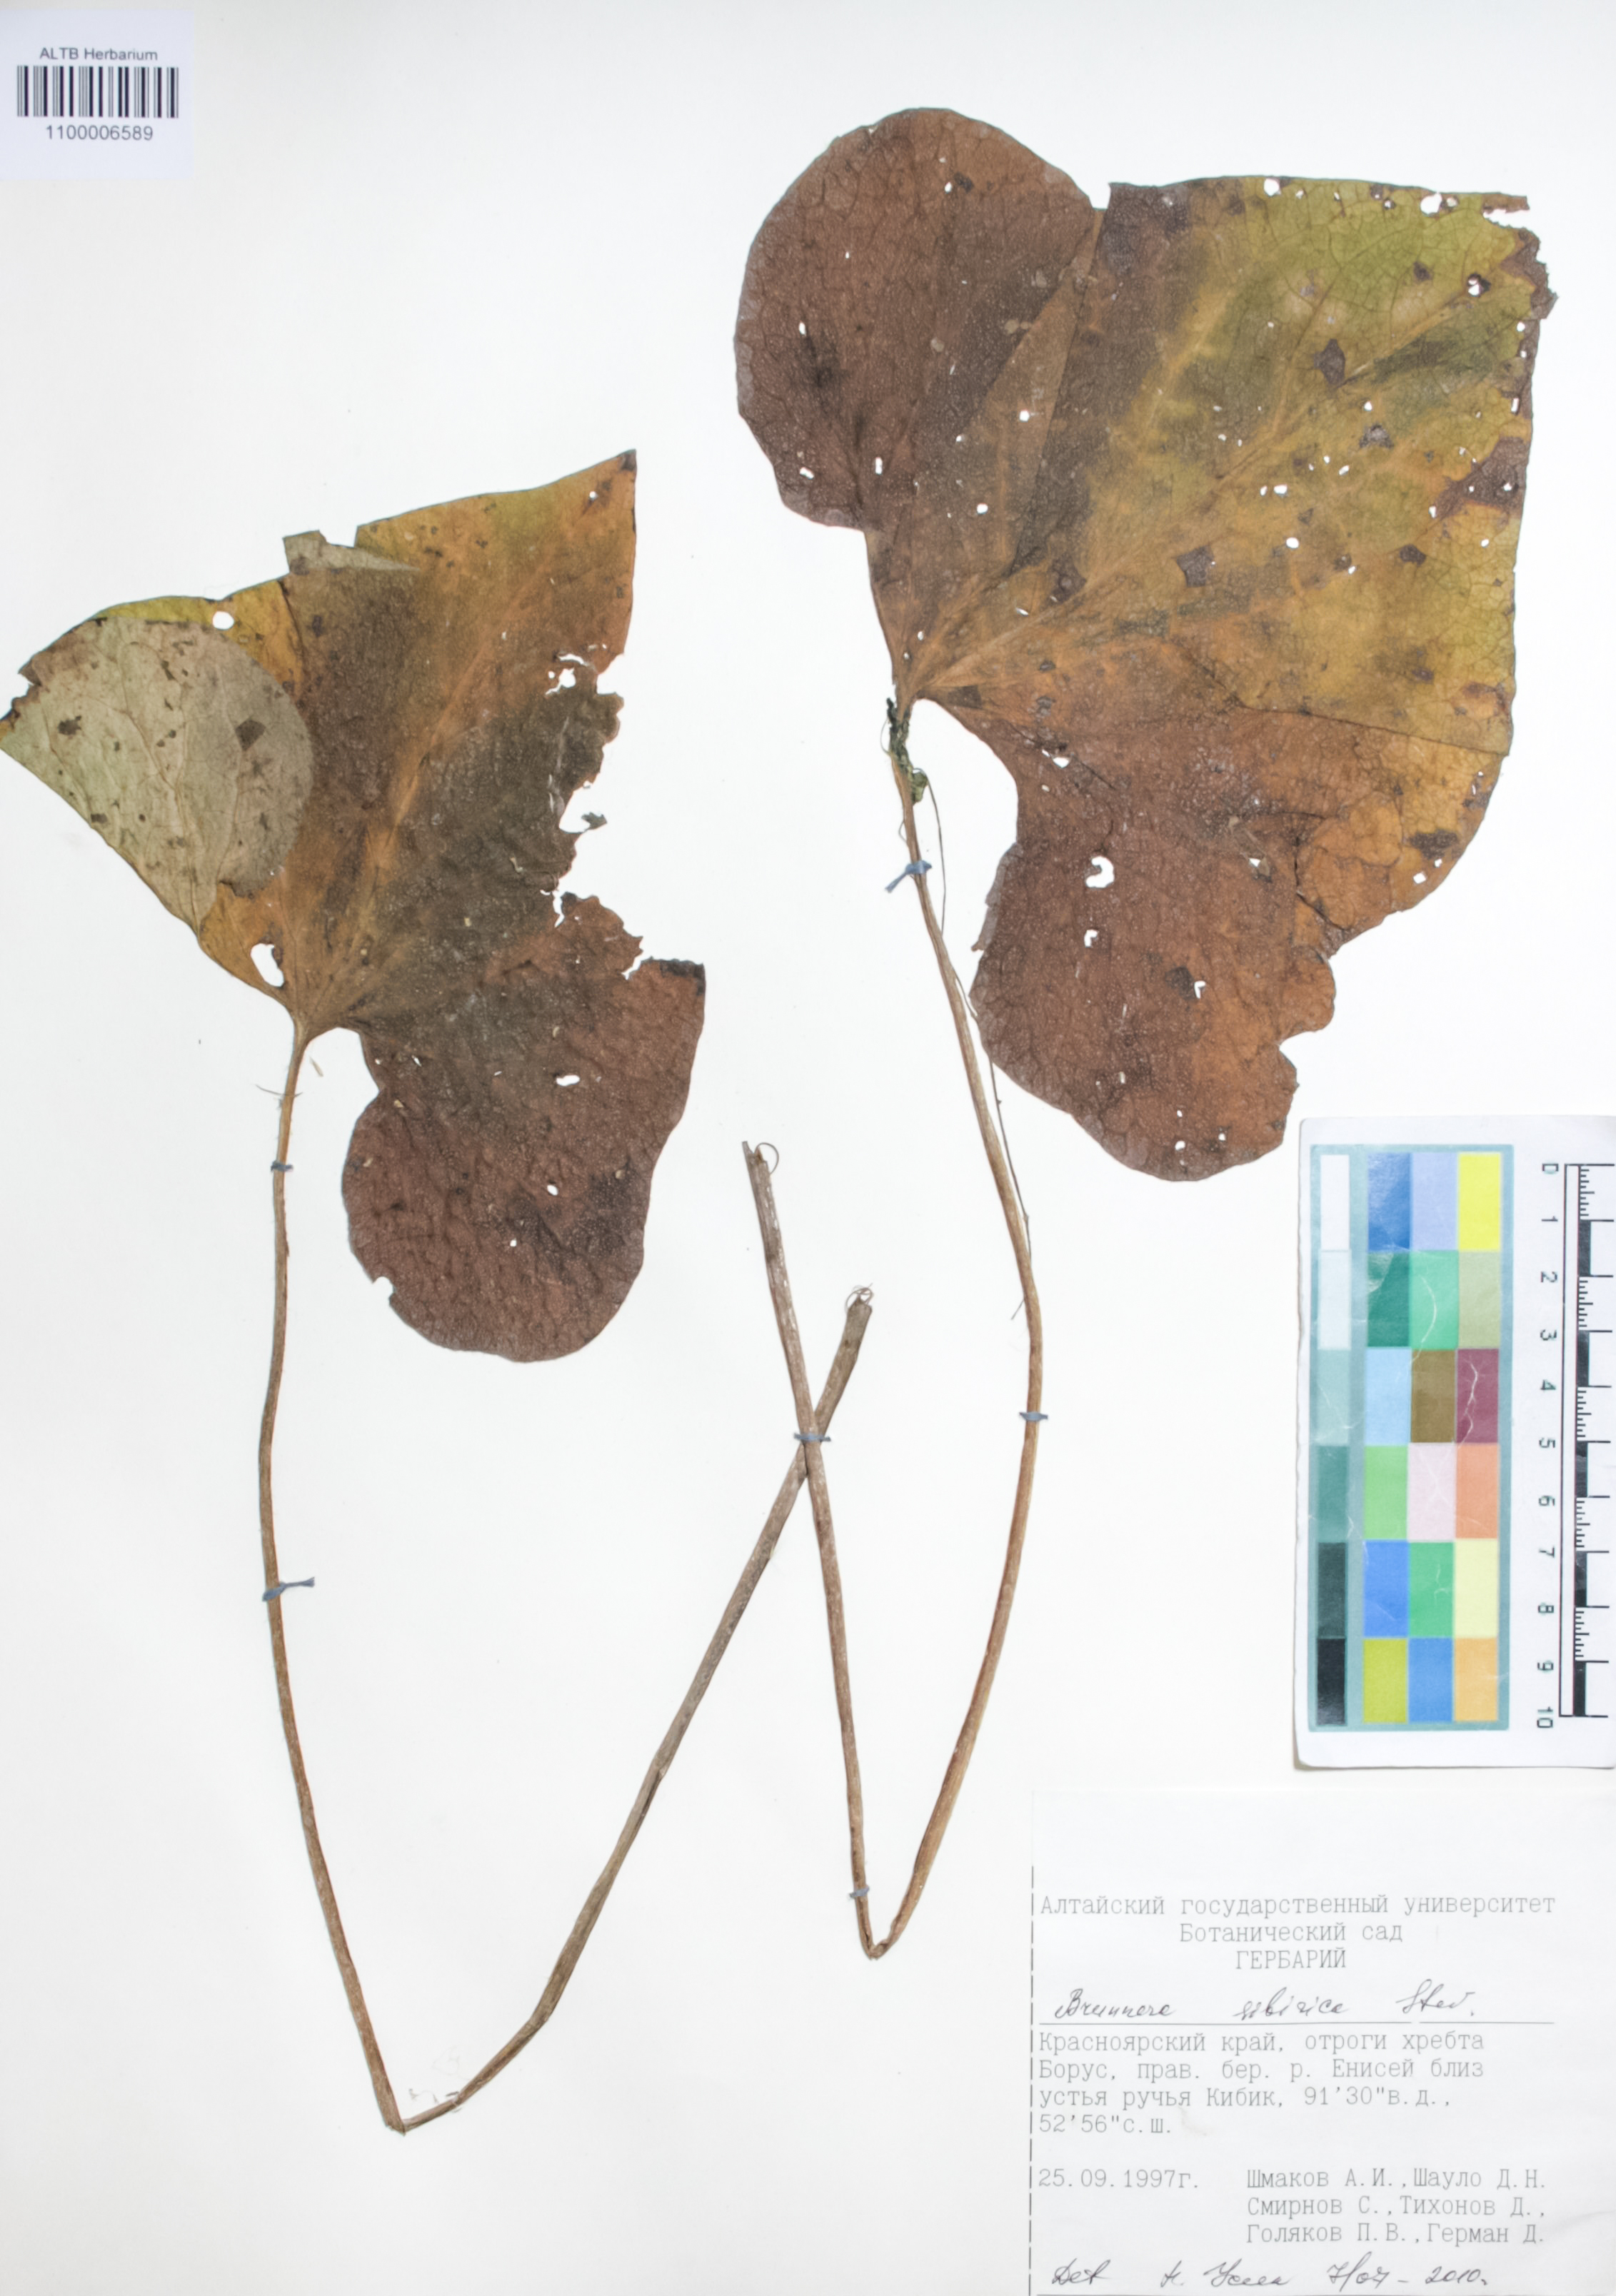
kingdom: Plantae
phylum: Tracheophyta
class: Magnoliopsida
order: Boraginales
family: Boraginaceae
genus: Brunnera
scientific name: Brunnera sibirica
